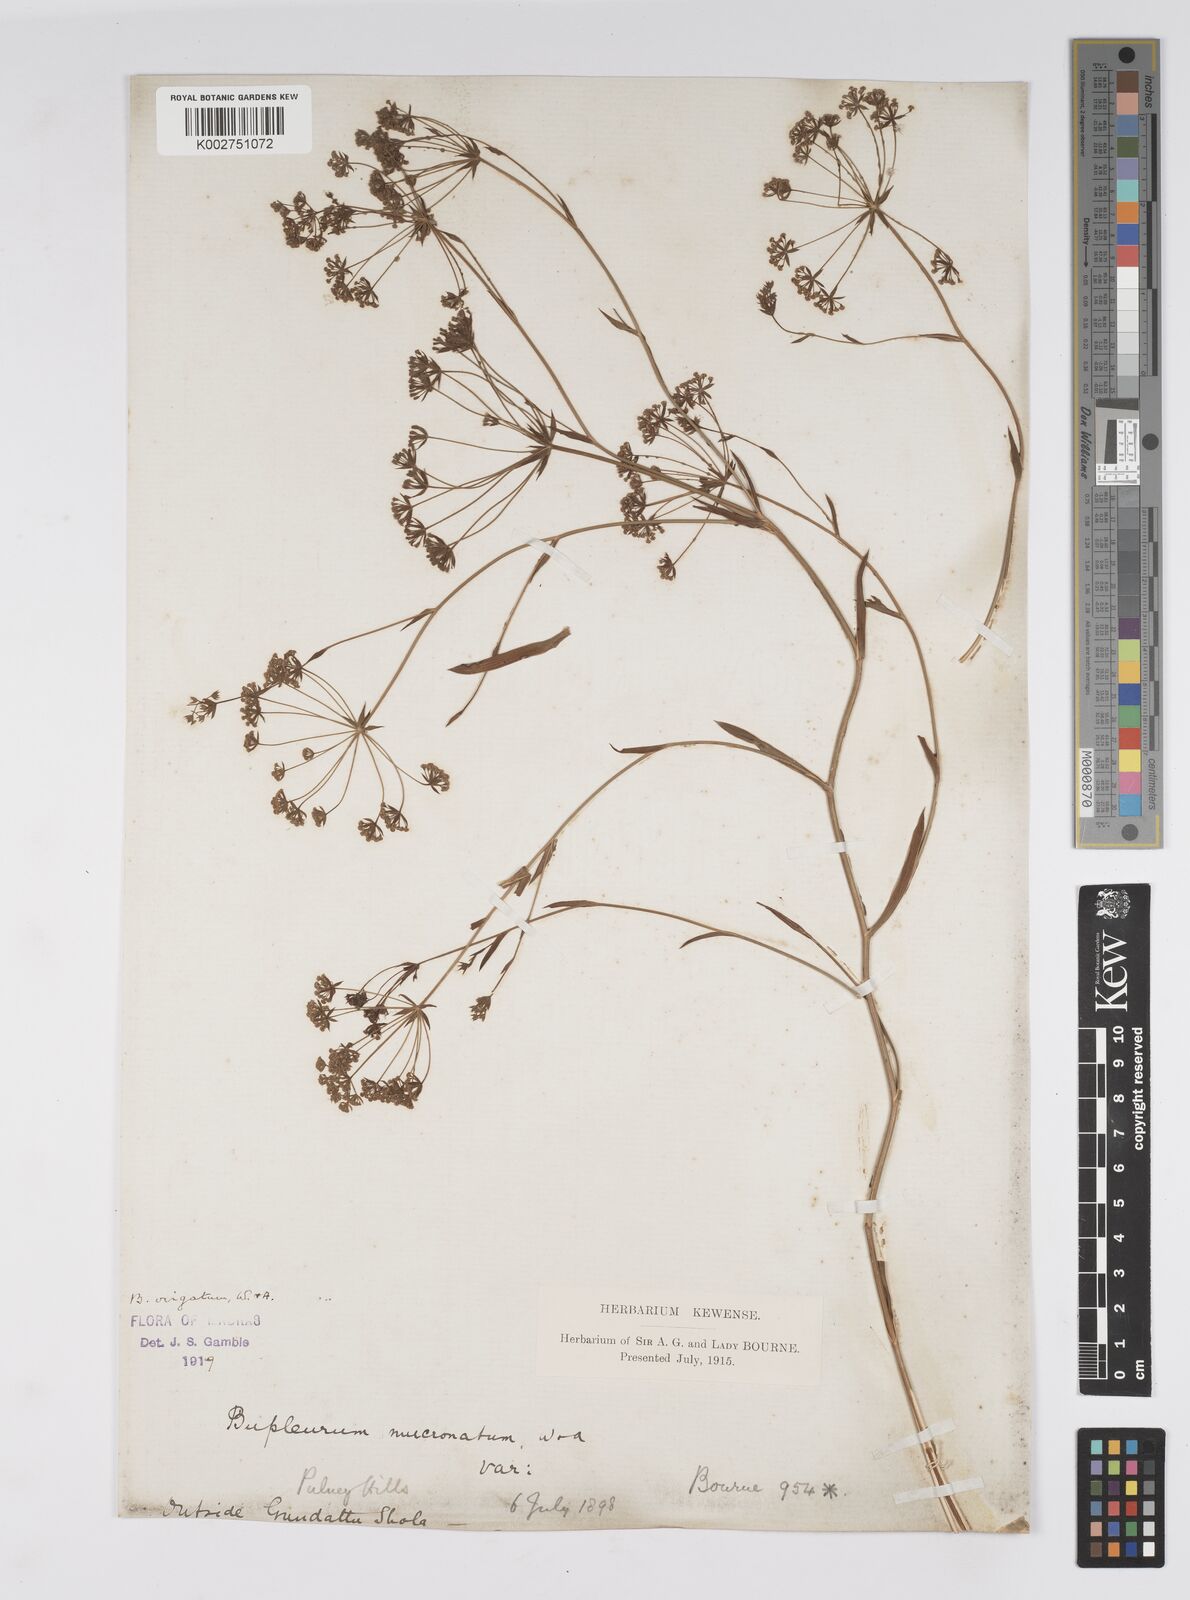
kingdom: Plantae
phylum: Tracheophyta
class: Magnoliopsida
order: Apiales
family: Apiaceae
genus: Bupleurum
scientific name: Bupleurum
